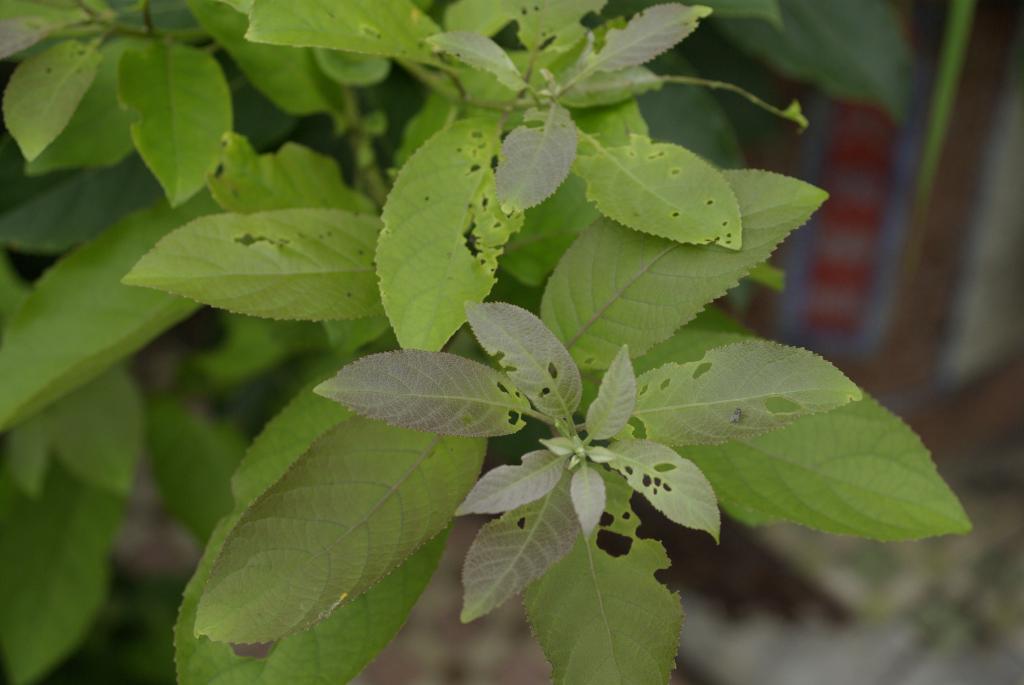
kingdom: Plantae
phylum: Tracheophyta
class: Magnoliopsida
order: Boraginales
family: Ehretiaceae
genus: Ehretia
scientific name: Ehretia acuminata
